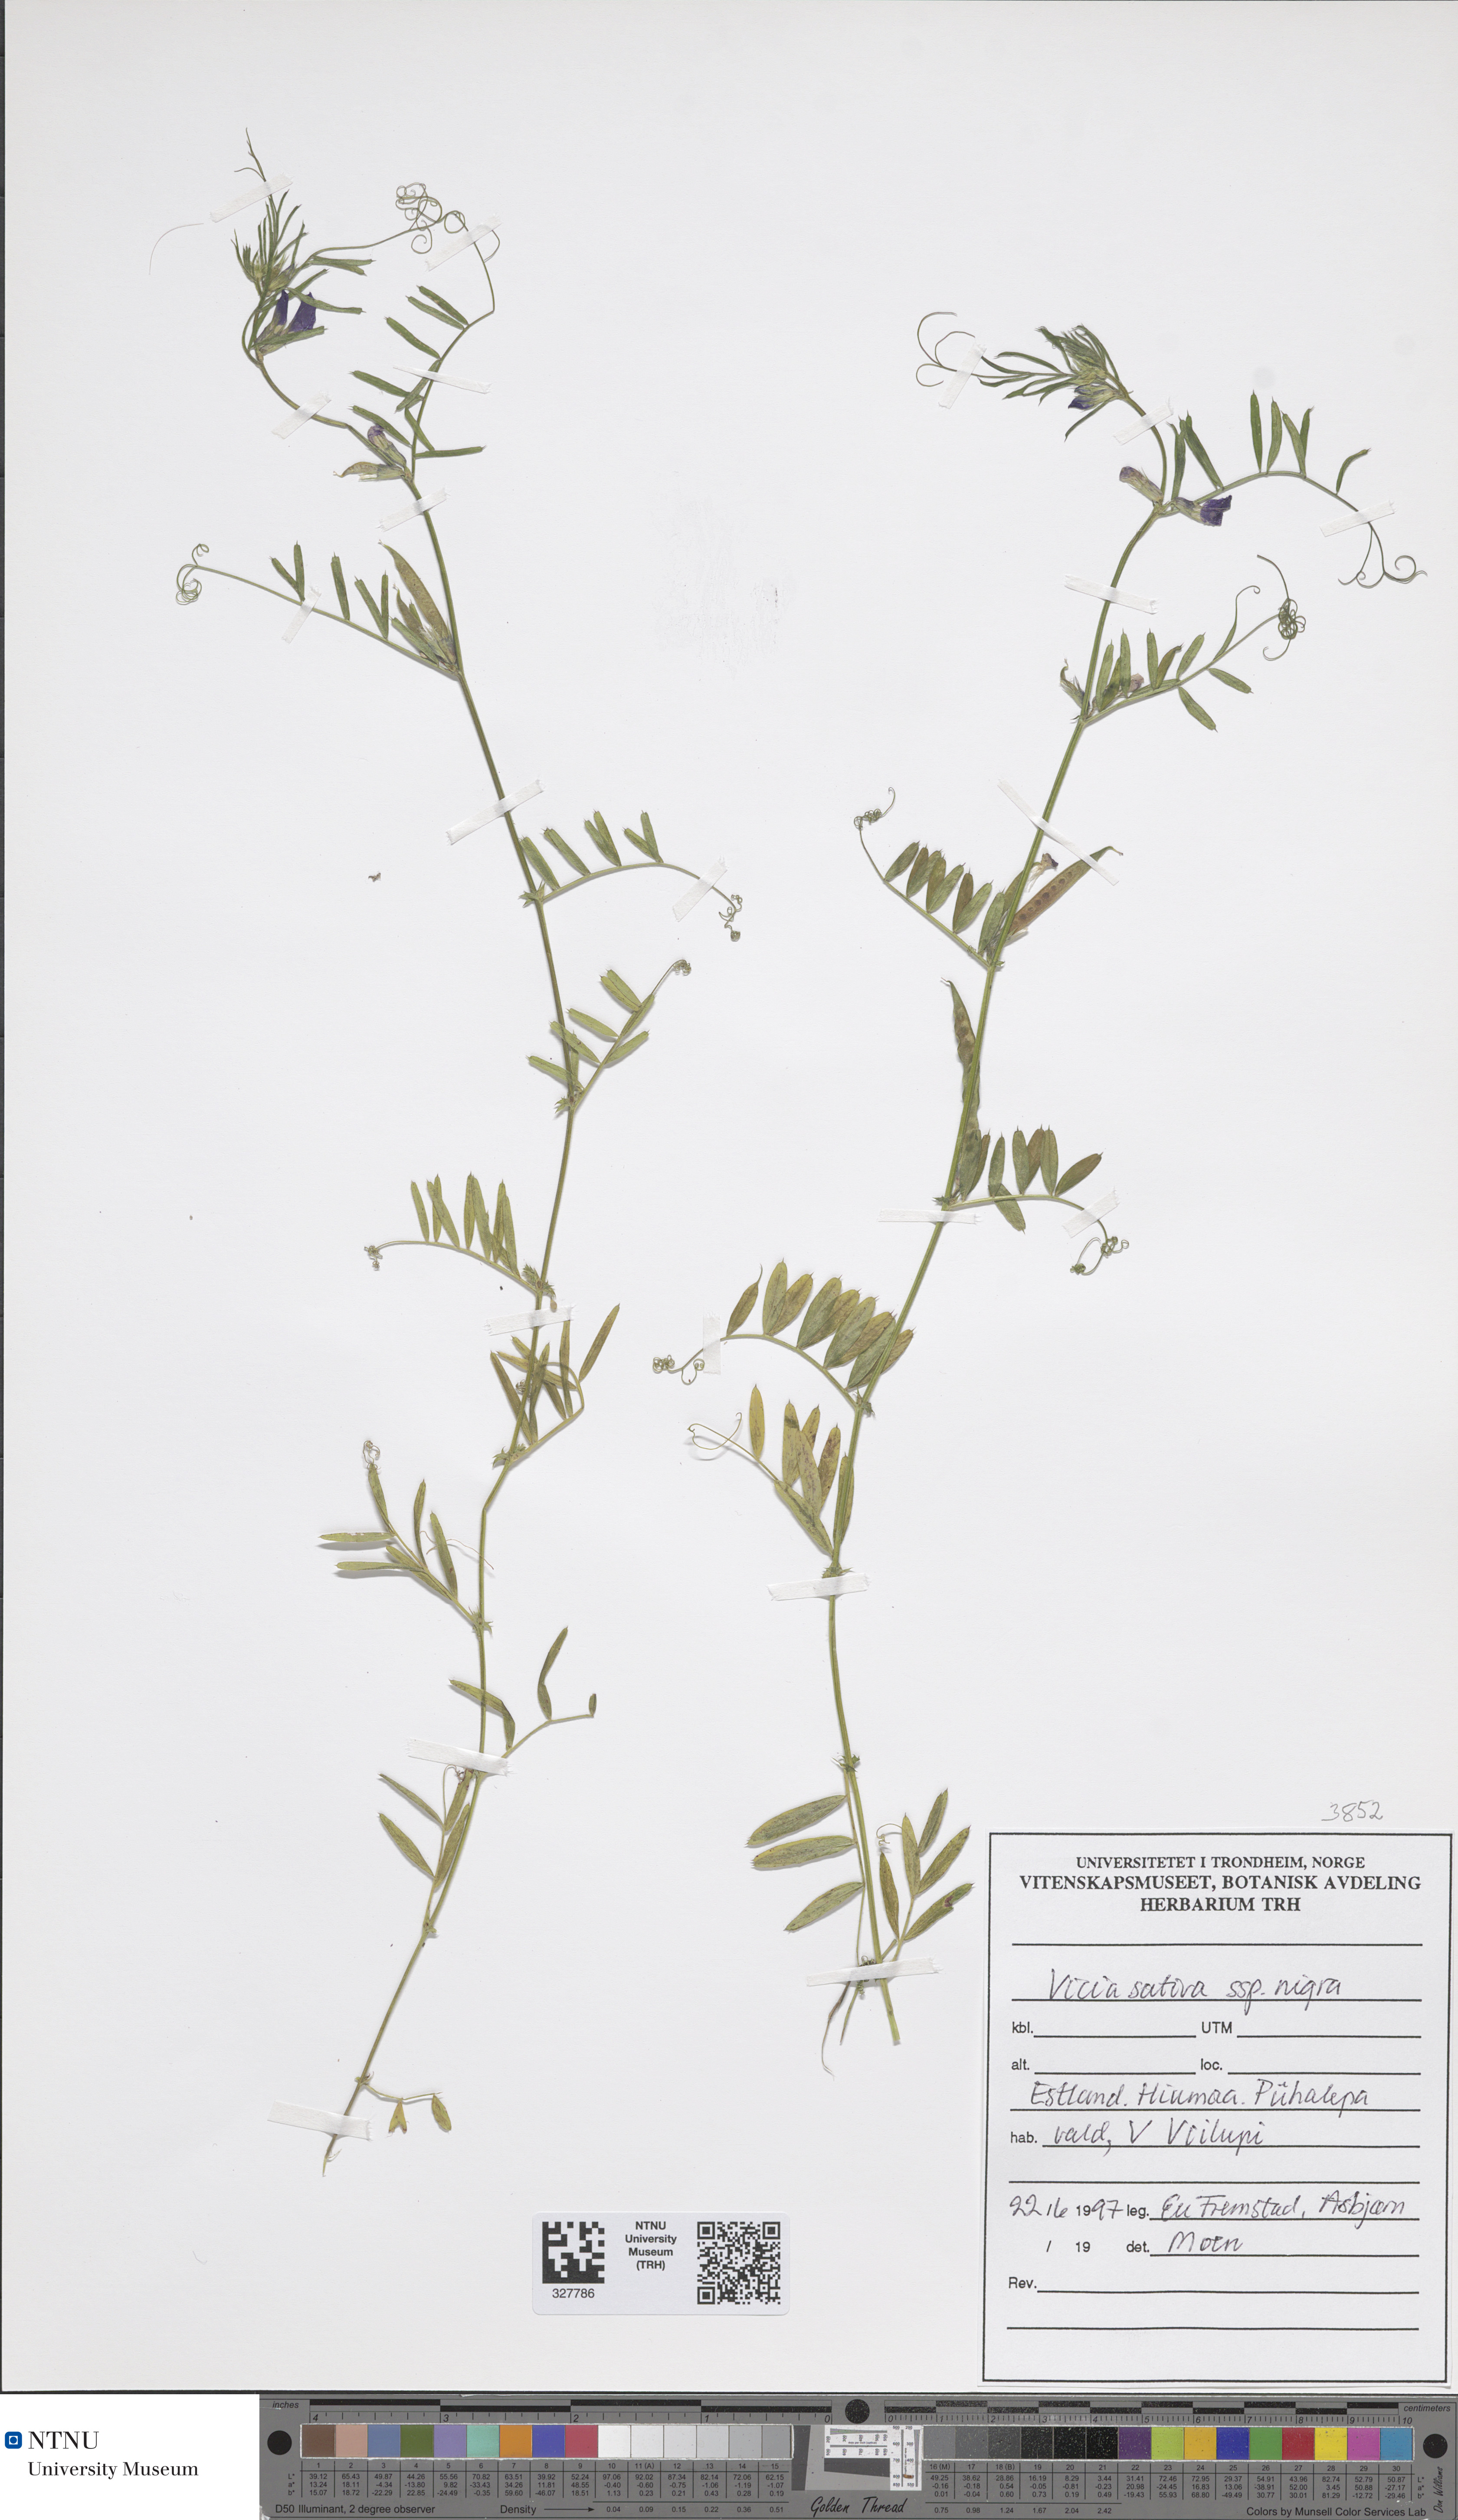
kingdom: Plantae
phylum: Tracheophyta
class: Magnoliopsida
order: Fabales
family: Fabaceae
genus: Vicia
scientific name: Vicia sativa
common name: Garden vetch
